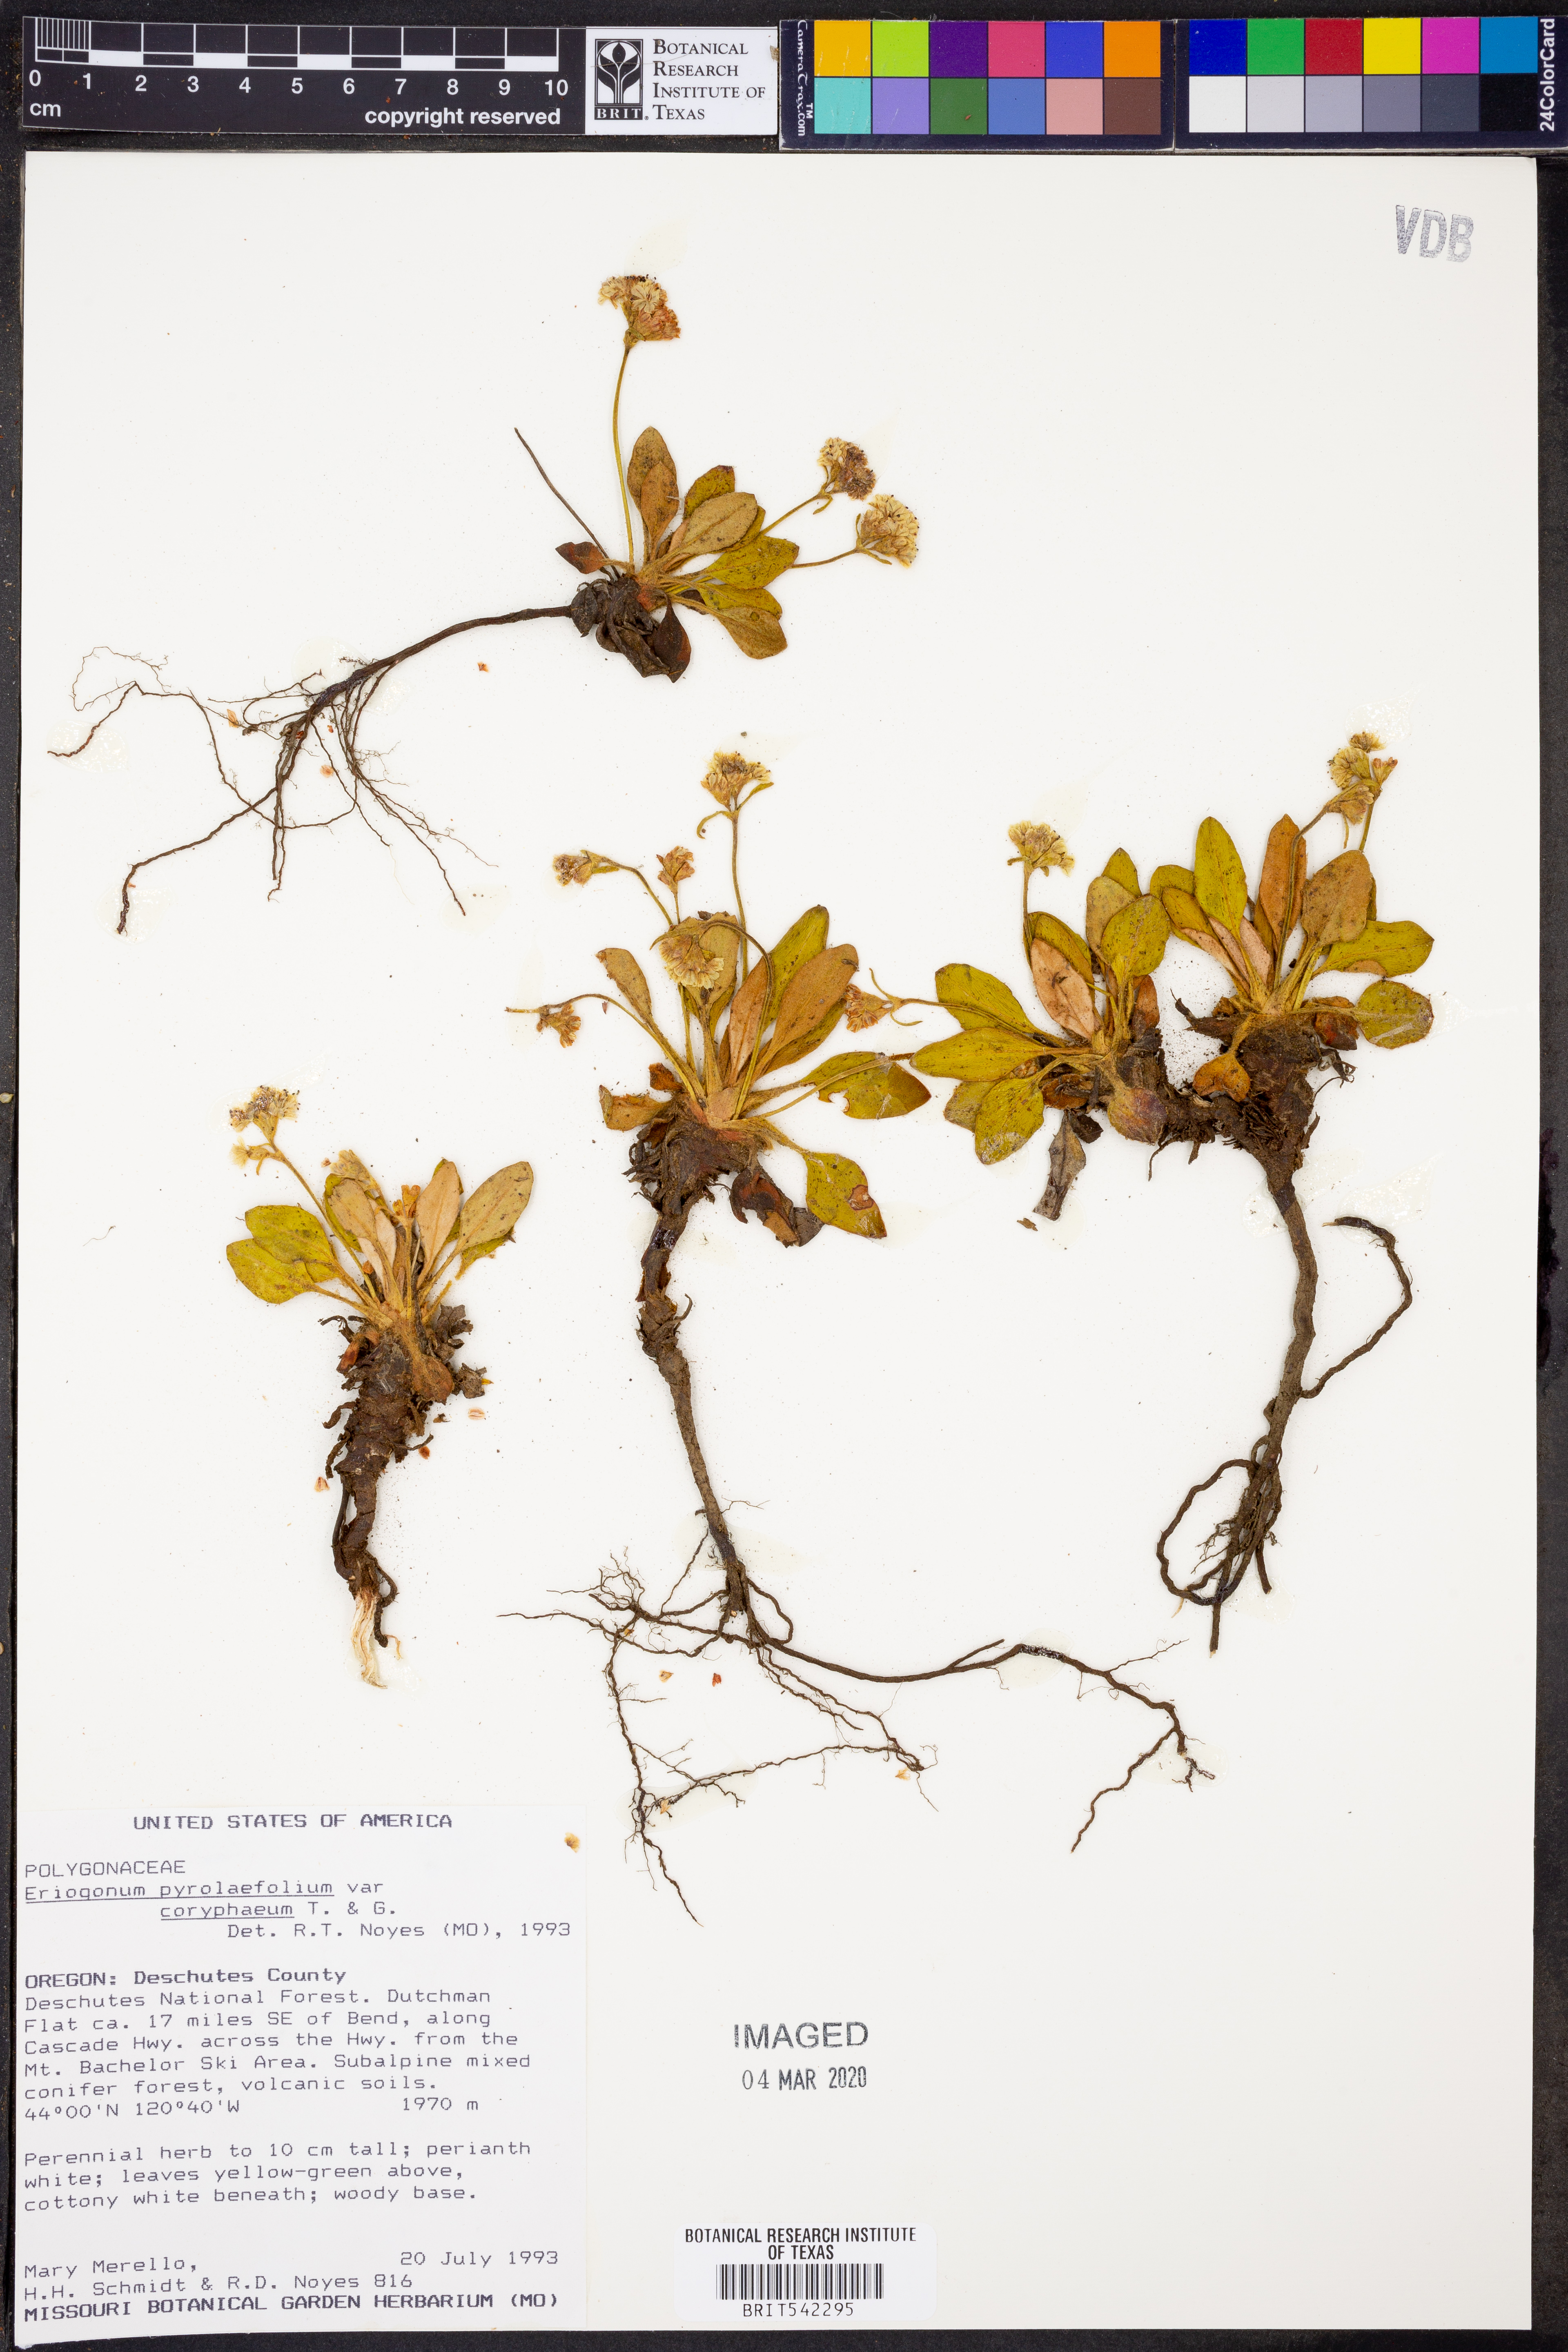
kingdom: Plantae
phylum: Tracheophyta
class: Magnoliopsida
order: Caryophyllales
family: Polygonaceae
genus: Eriogonum
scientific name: Eriogonum pyrolifolium
